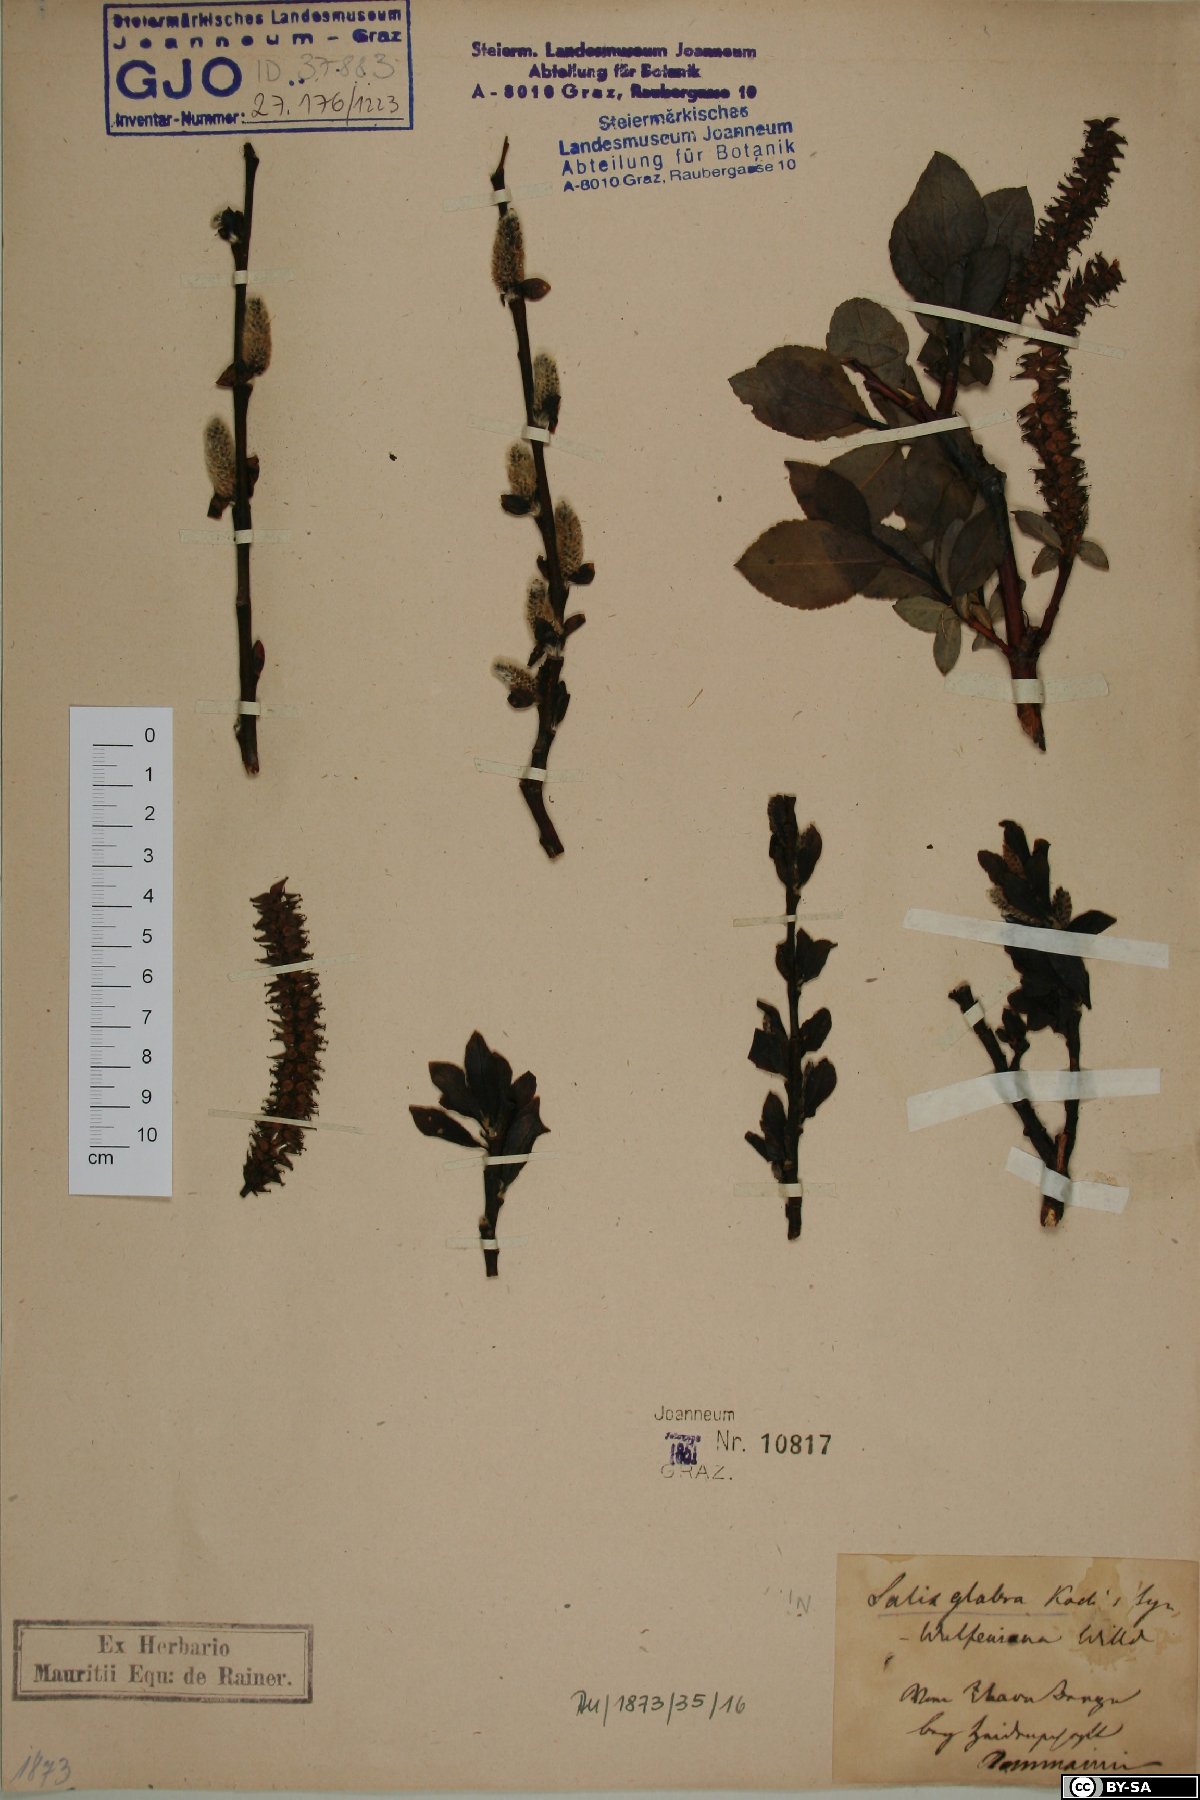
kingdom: Plantae
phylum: Tracheophyta
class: Magnoliopsida
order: Malpighiales
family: Salicaceae
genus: Salix
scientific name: Salix glabra
